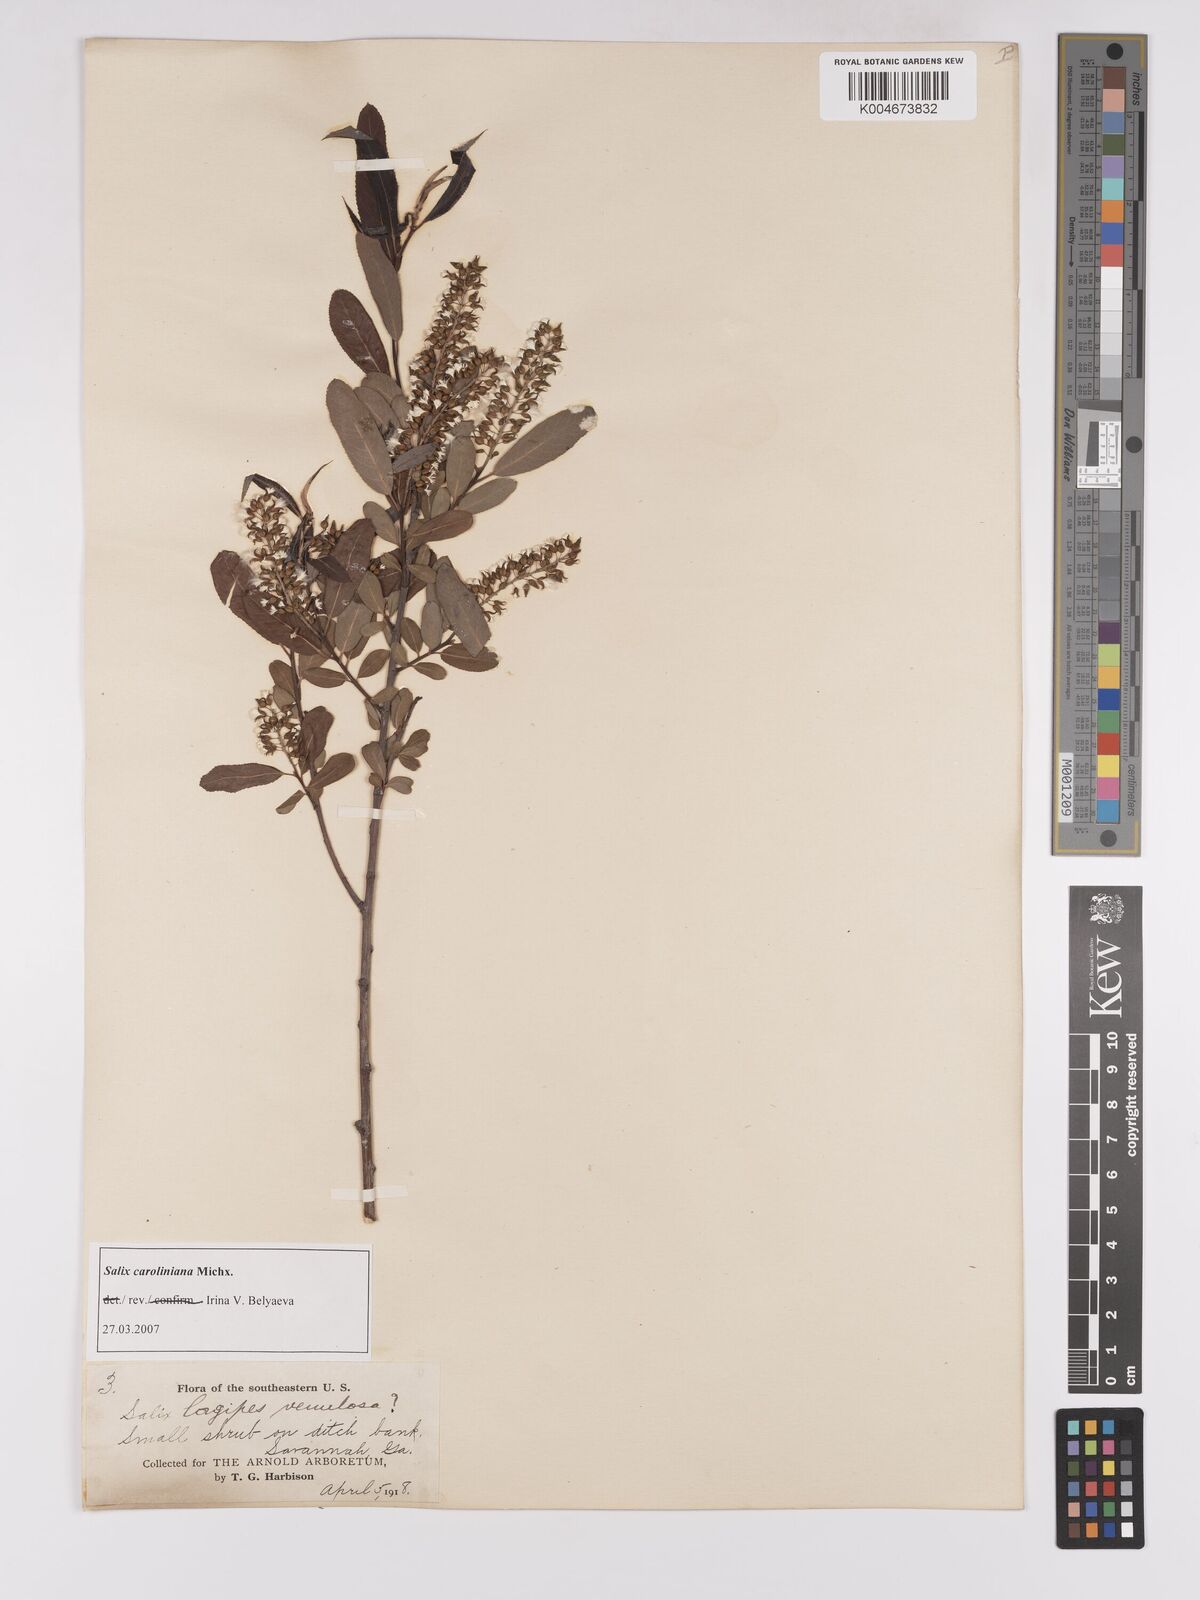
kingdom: Plantae
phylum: Tracheophyta
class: Magnoliopsida
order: Malpighiales
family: Salicaceae
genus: Salix
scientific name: Salix caroliniana
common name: Carolina willow
